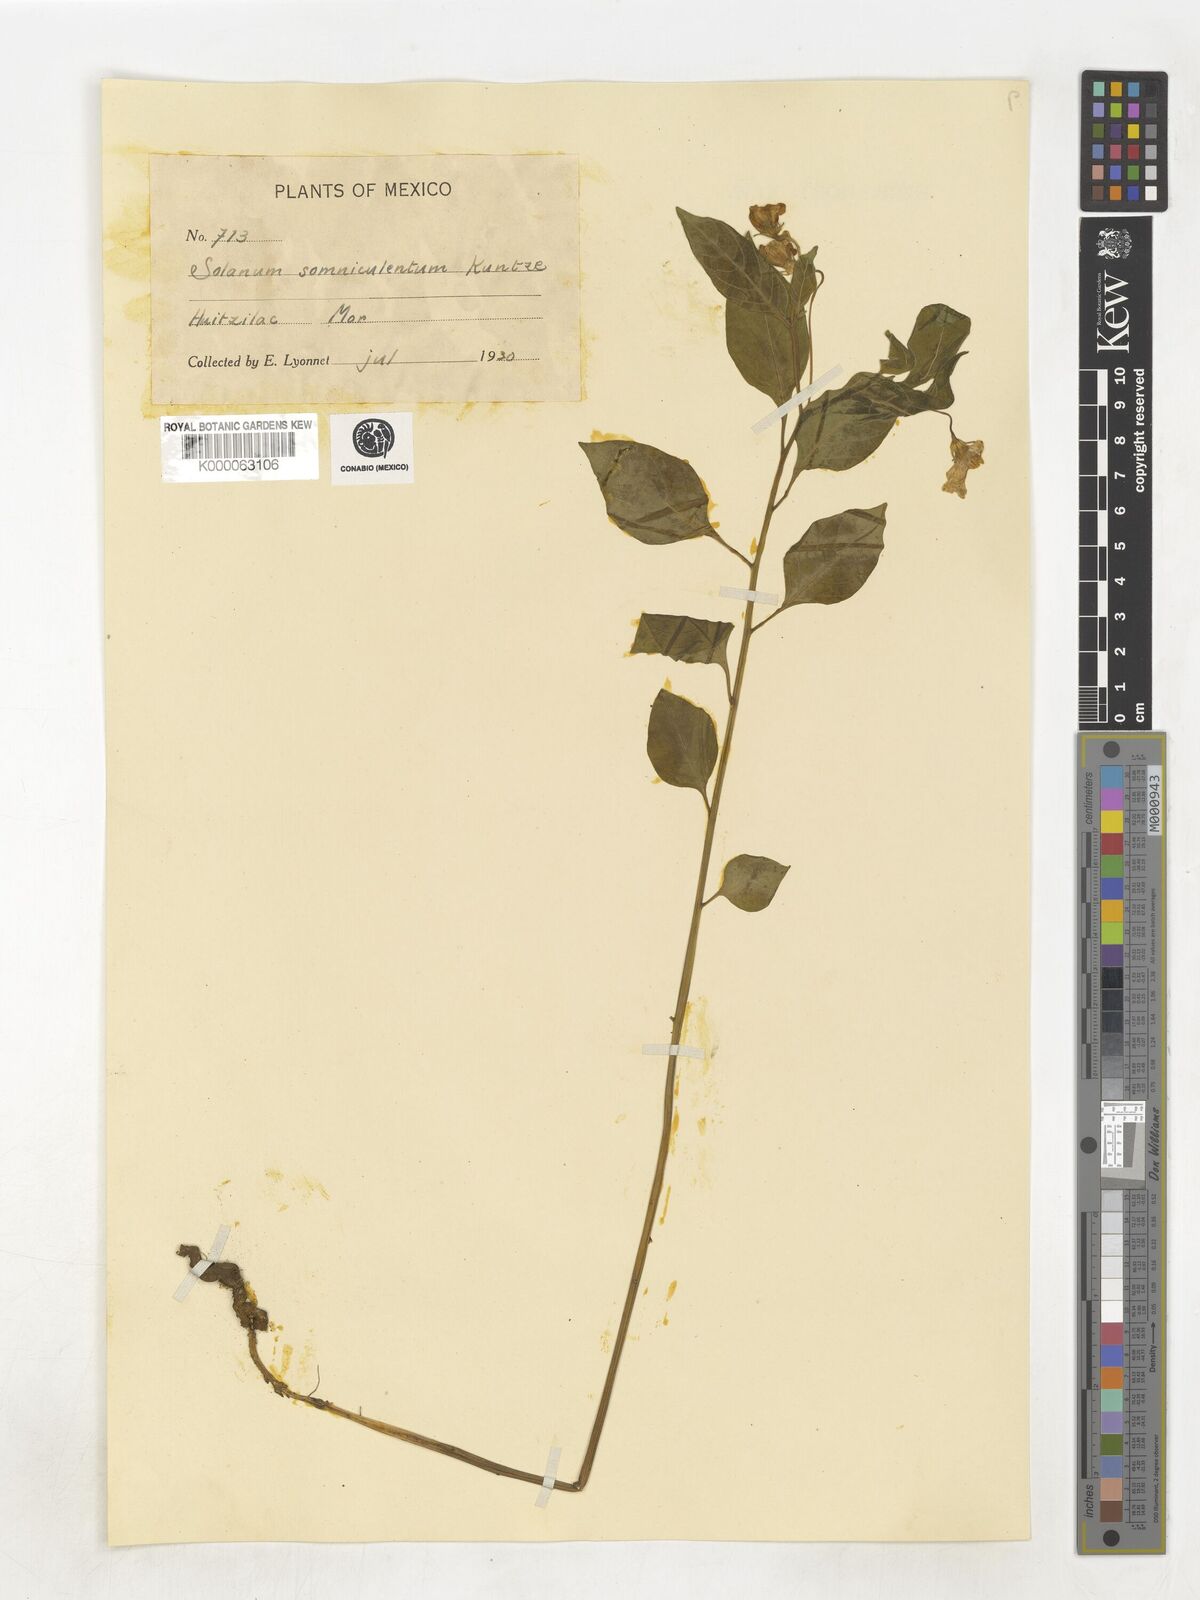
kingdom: Plantae
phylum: Tracheophyta
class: Magnoliopsida
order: Solanales
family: Solanaceae
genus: Lycianthes
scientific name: Lycianthes ciliolata
